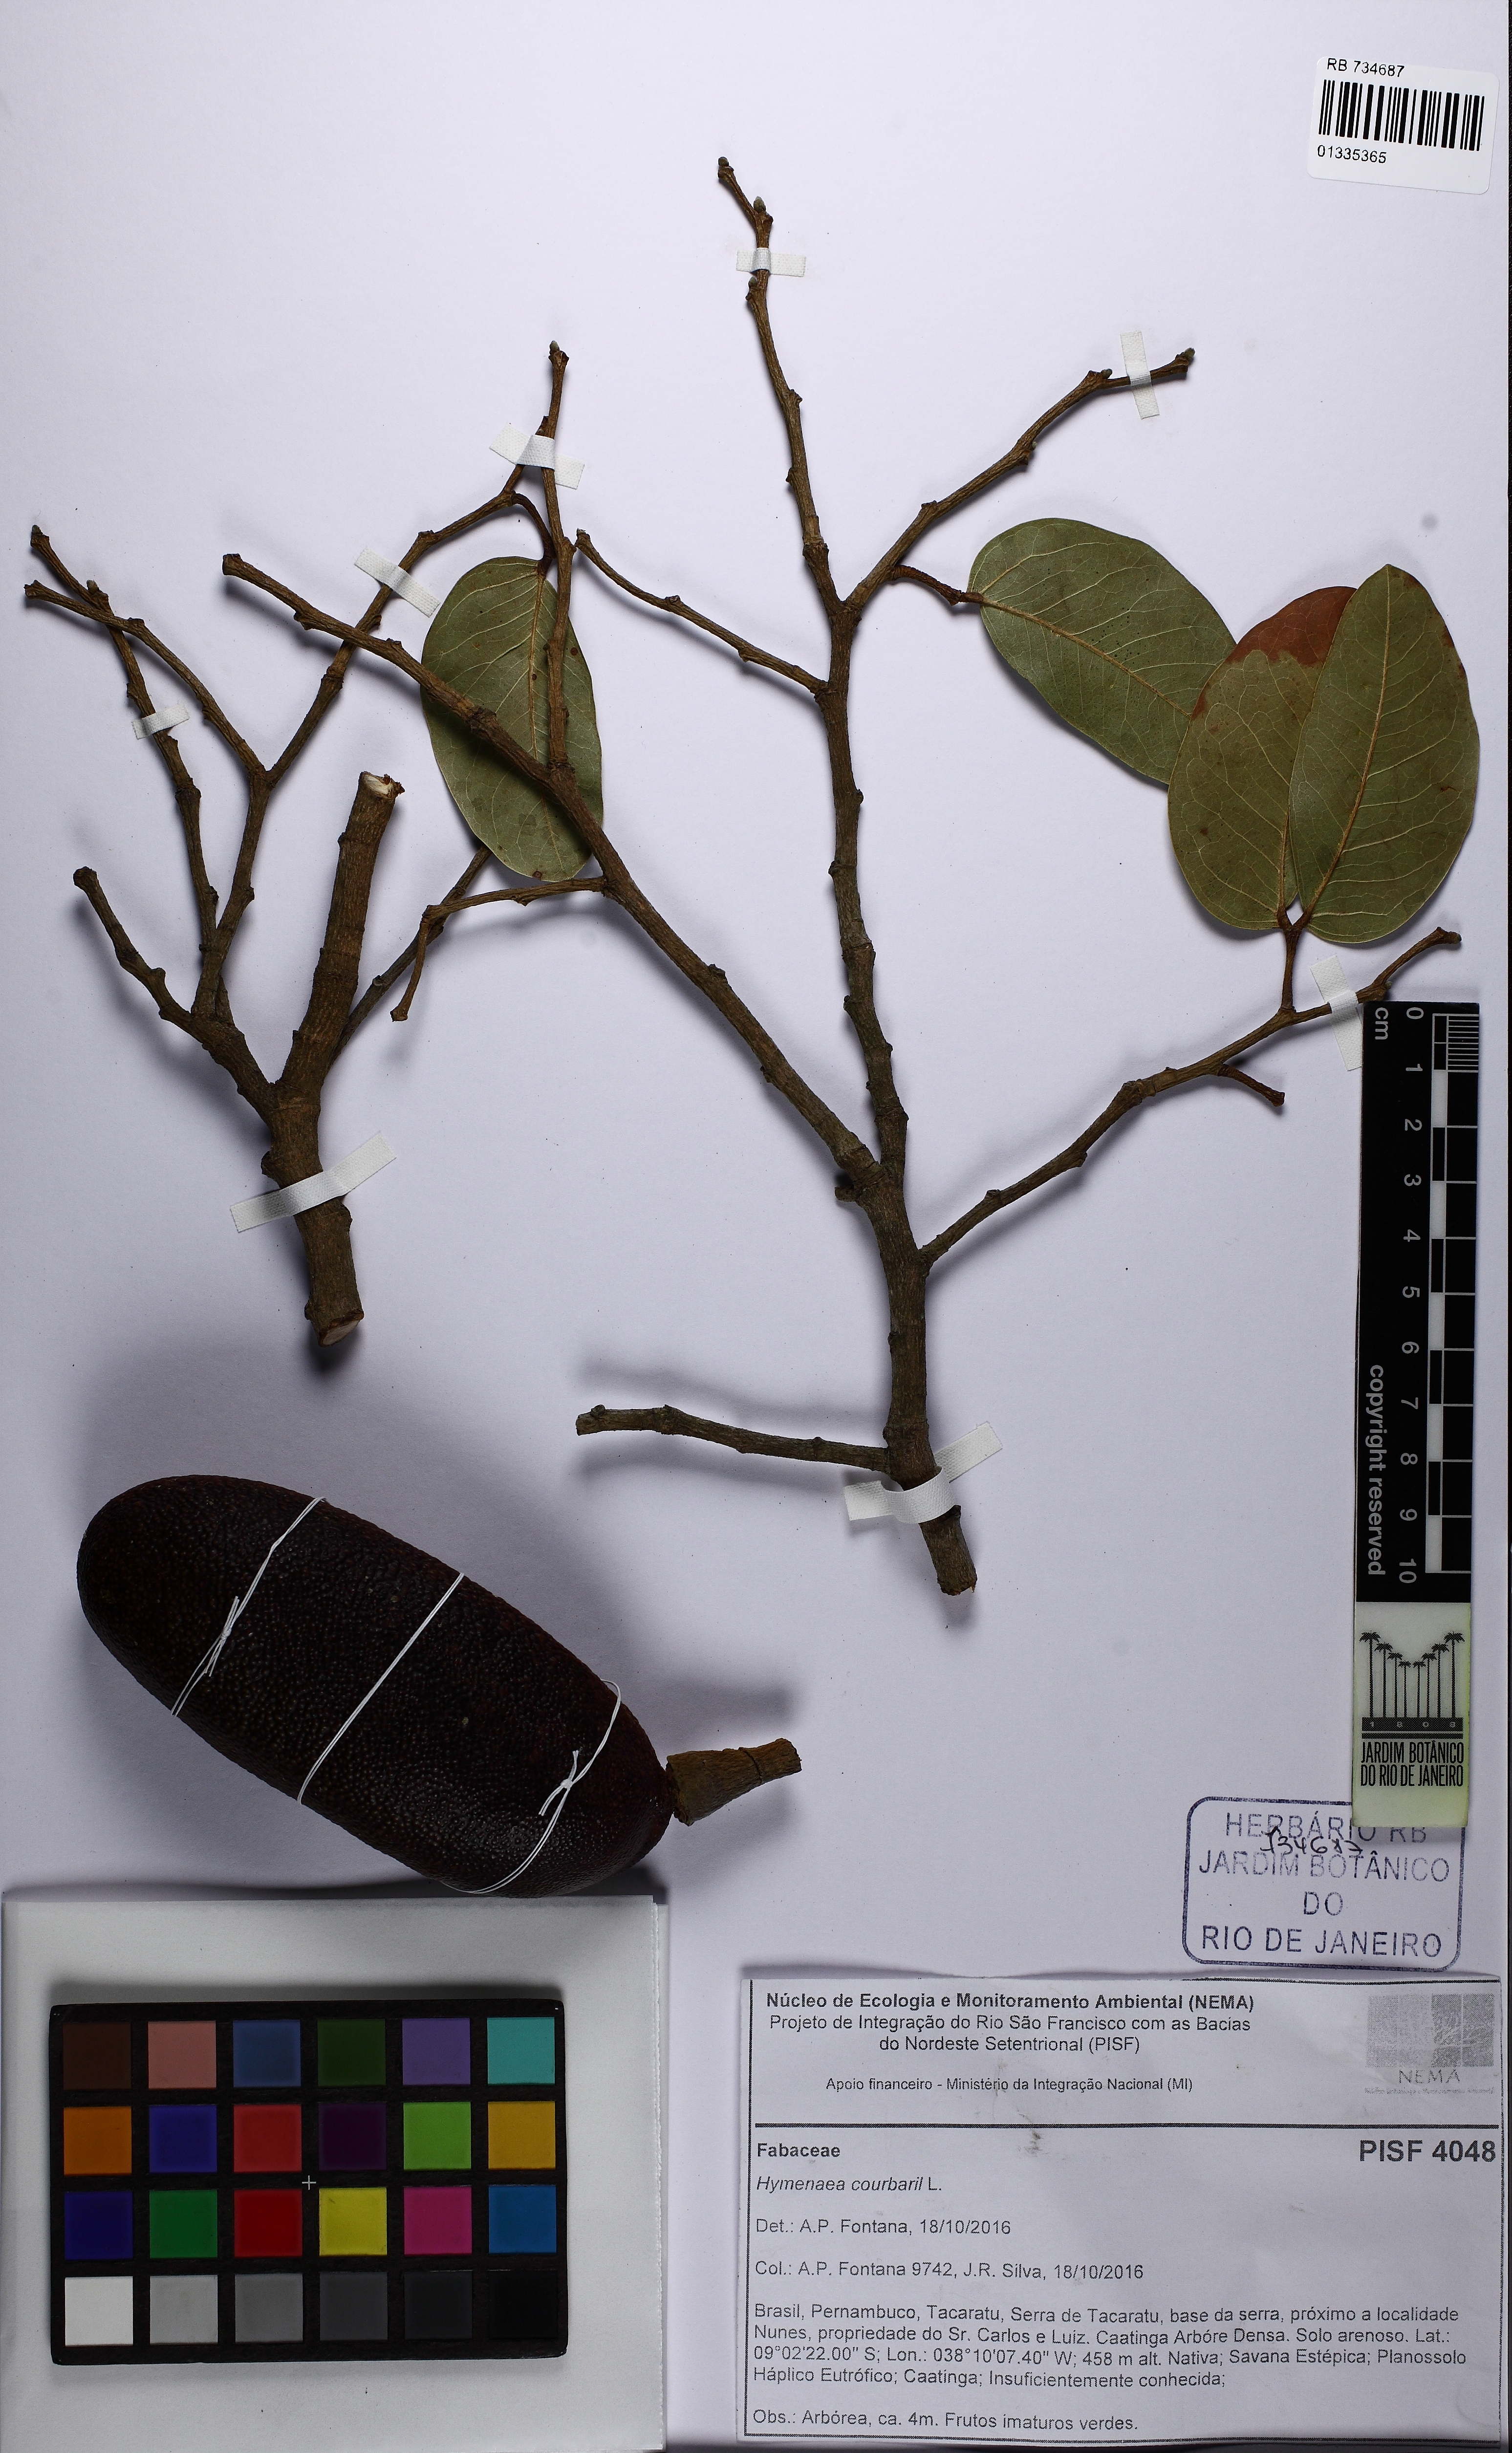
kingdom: Plantae
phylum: Tracheophyta
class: Magnoliopsida
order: Fabales
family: Fabaceae
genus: Hymenaea
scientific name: Hymenaea courbaril
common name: Brazilian copal
